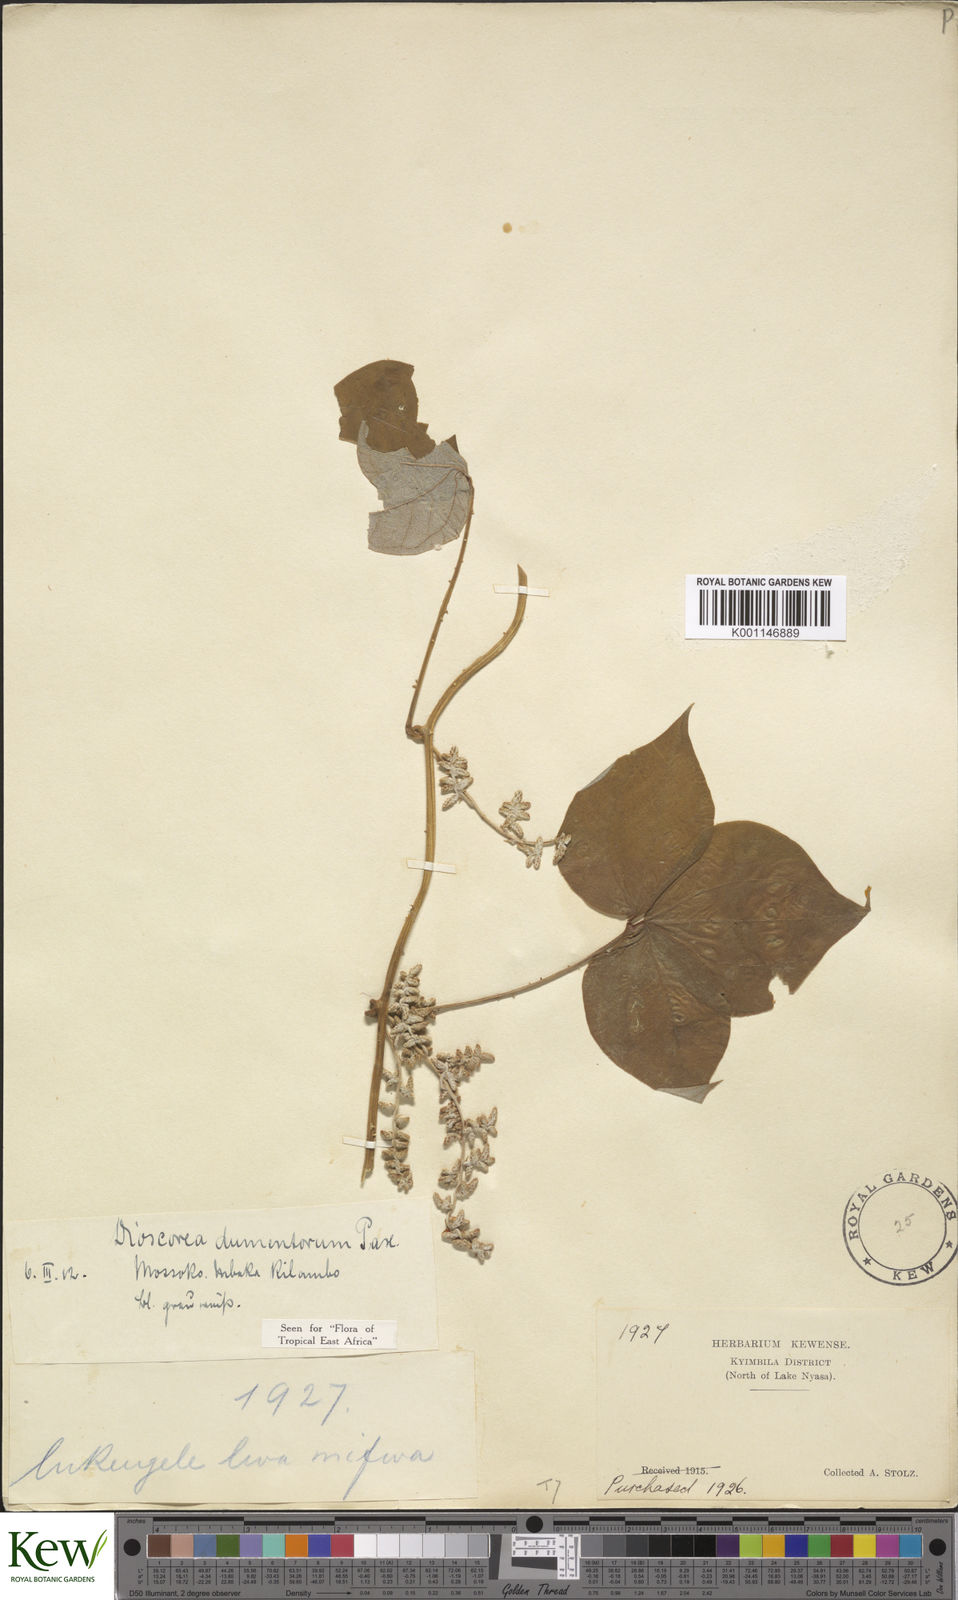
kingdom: Plantae
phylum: Tracheophyta
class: Liliopsida
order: Dioscoreales
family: Dioscoreaceae
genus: Dioscorea
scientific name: Dioscorea dumetorum
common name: African bitter yam
